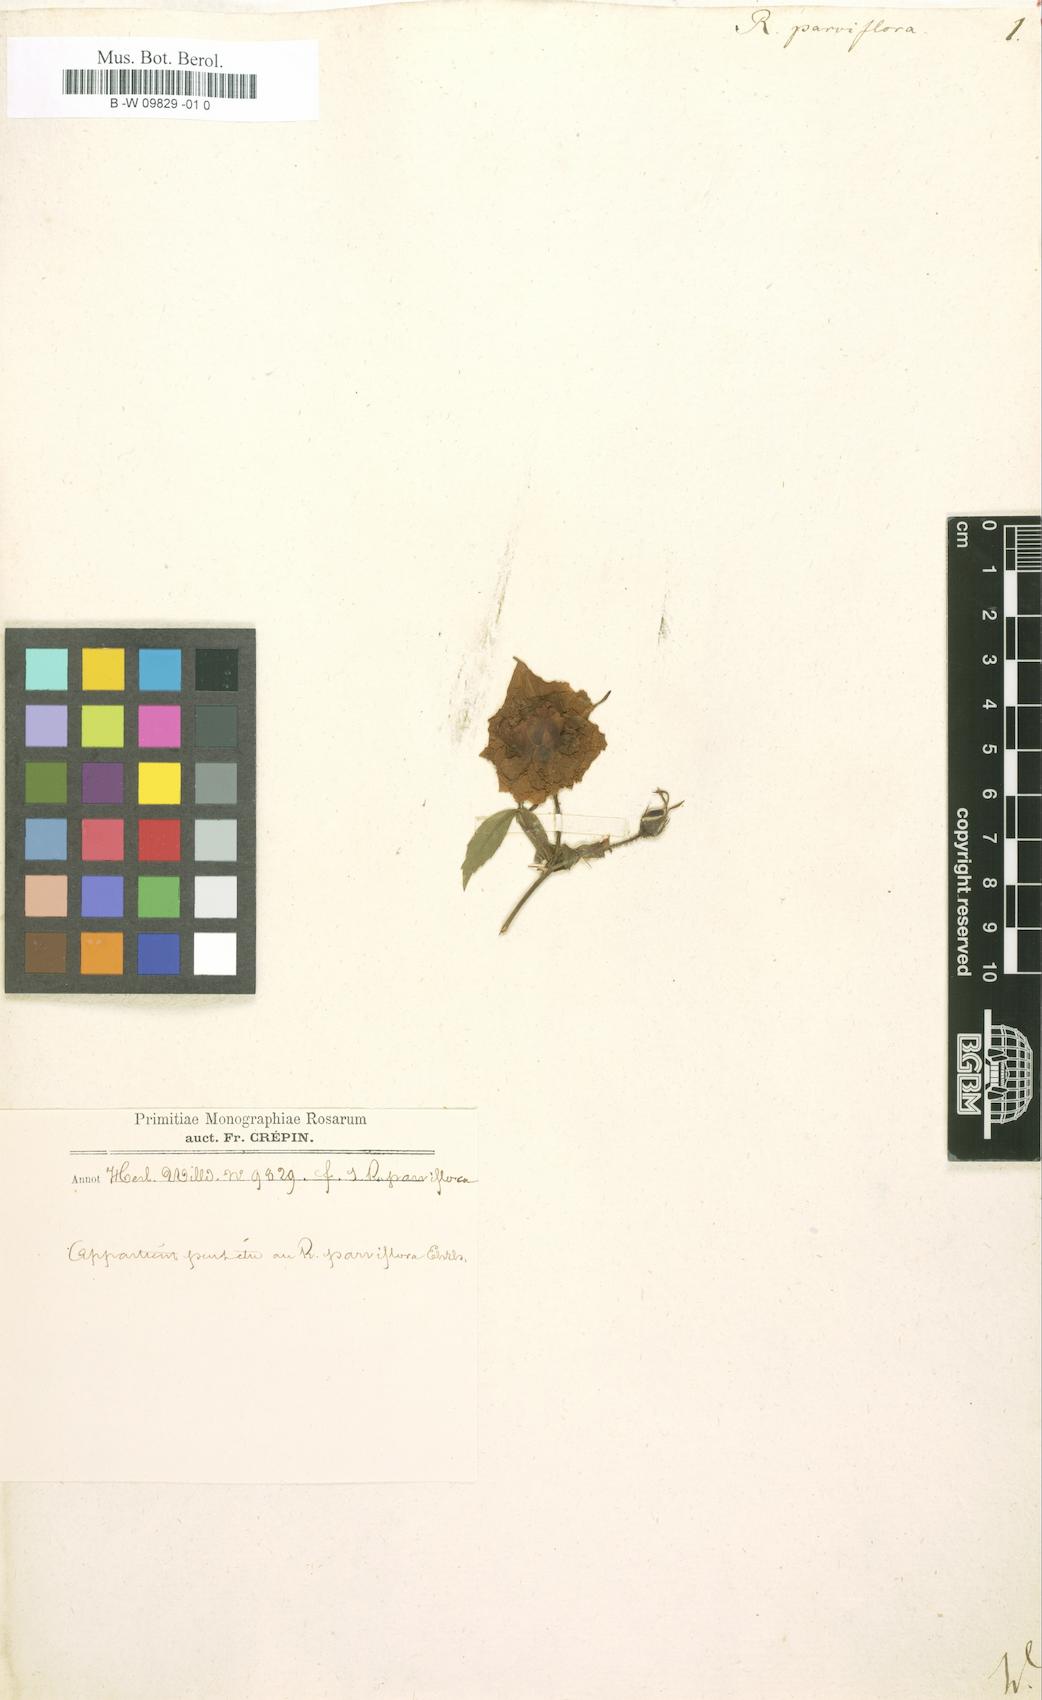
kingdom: Plantae
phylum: Tracheophyta
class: Magnoliopsida
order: Rosales
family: Rosaceae
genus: Rosa
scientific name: Rosa carolina
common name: Pasture rose
